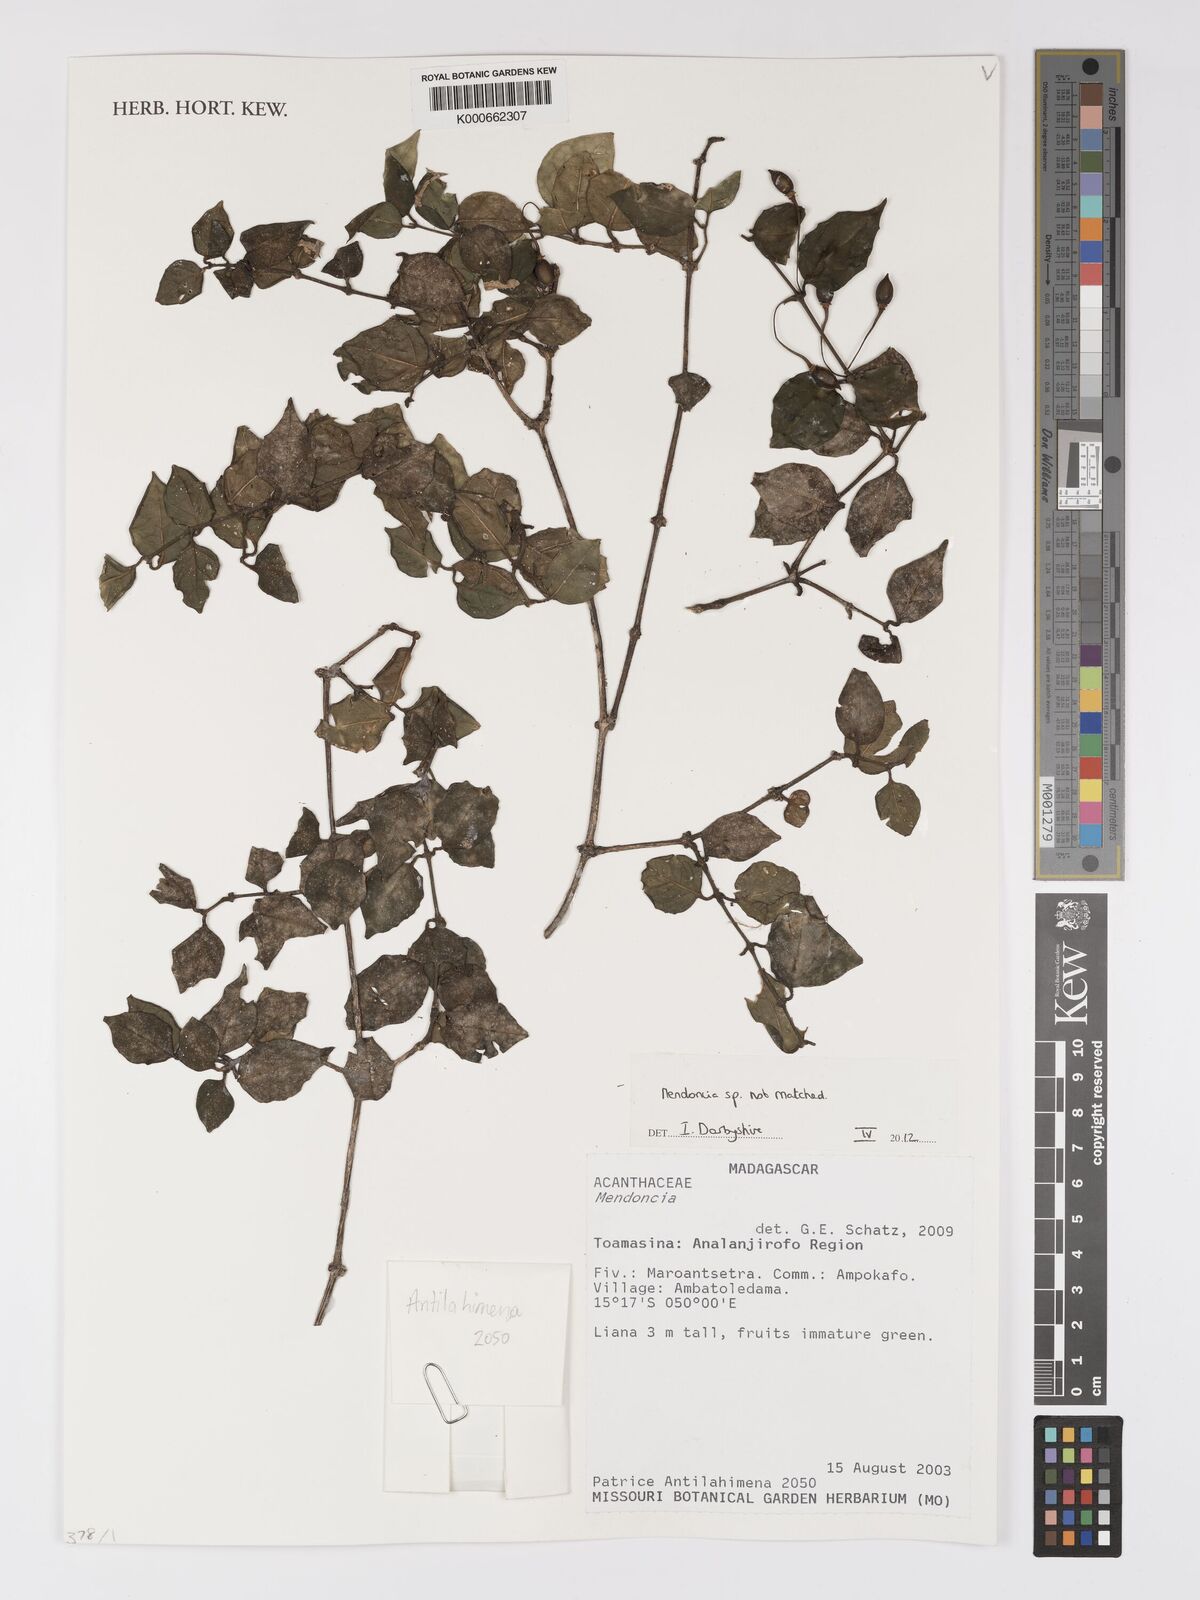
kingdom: Plantae
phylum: Tracheophyta
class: Magnoliopsida
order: Lamiales
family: Acanthaceae
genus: Mendoncia
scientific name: Mendoncia
